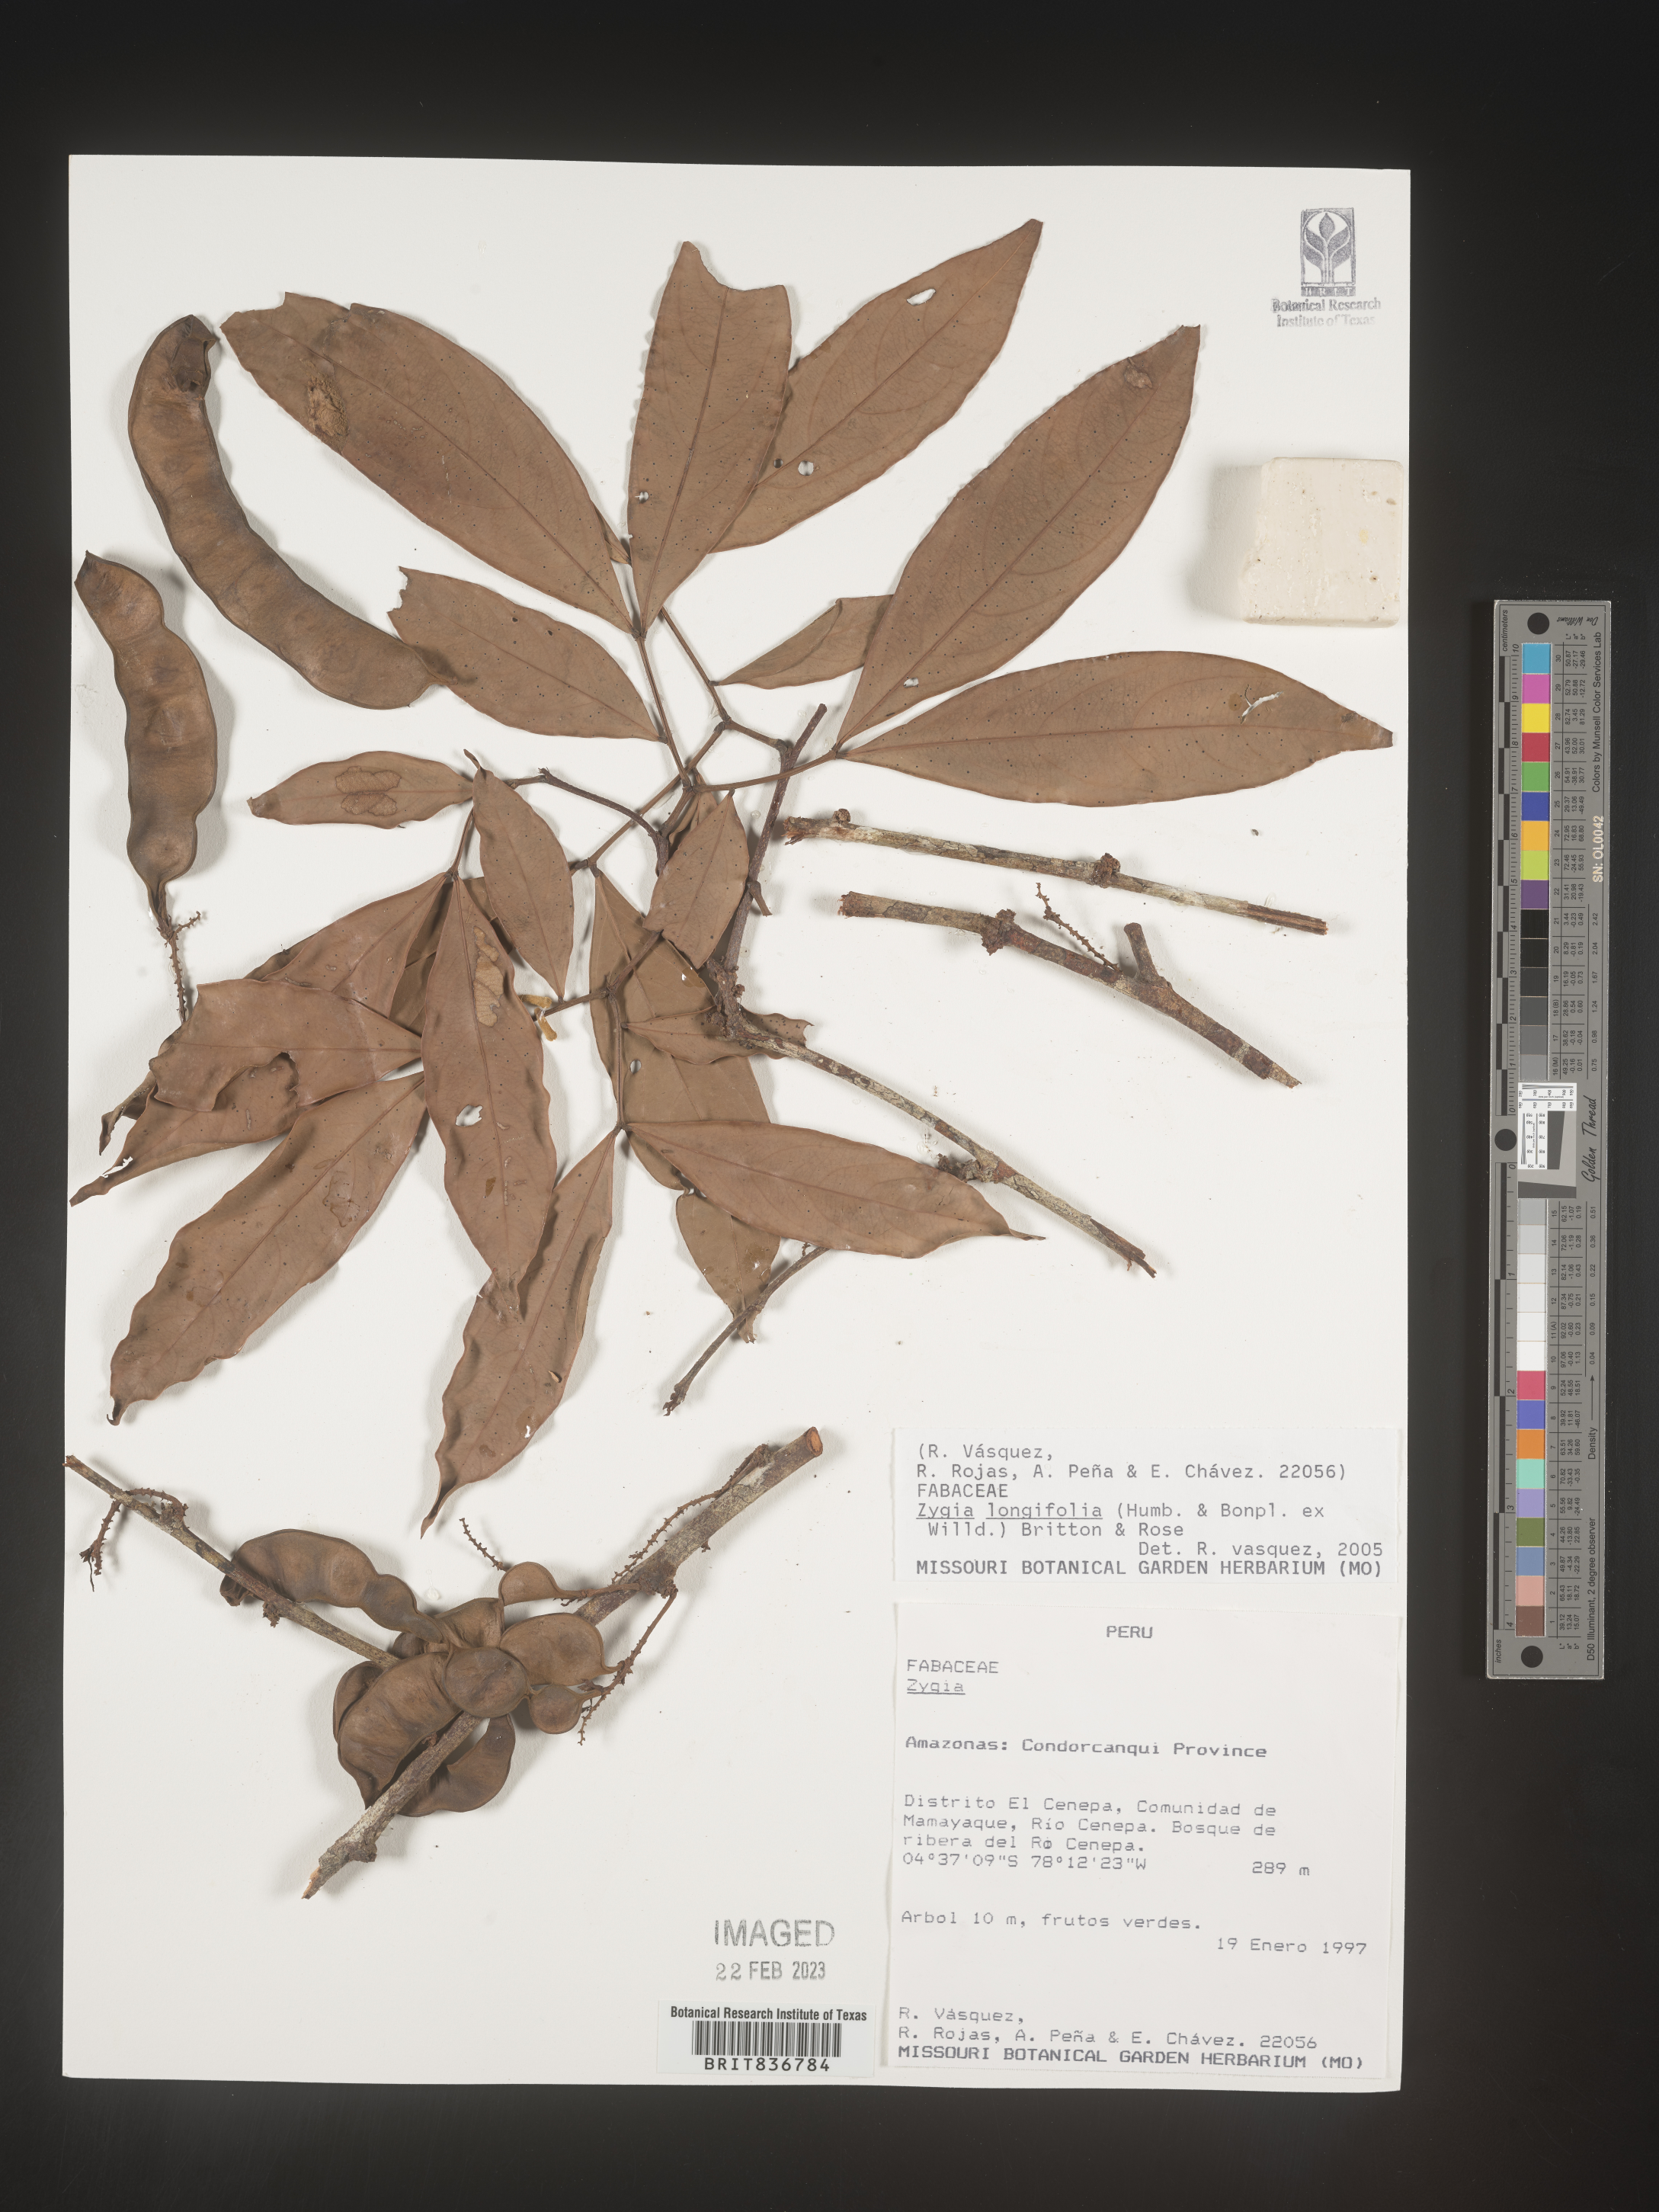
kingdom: Plantae
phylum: Tracheophyta
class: Magnoliopsida
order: Fabales
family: Fabaceae
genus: Zygia
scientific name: Zygia
